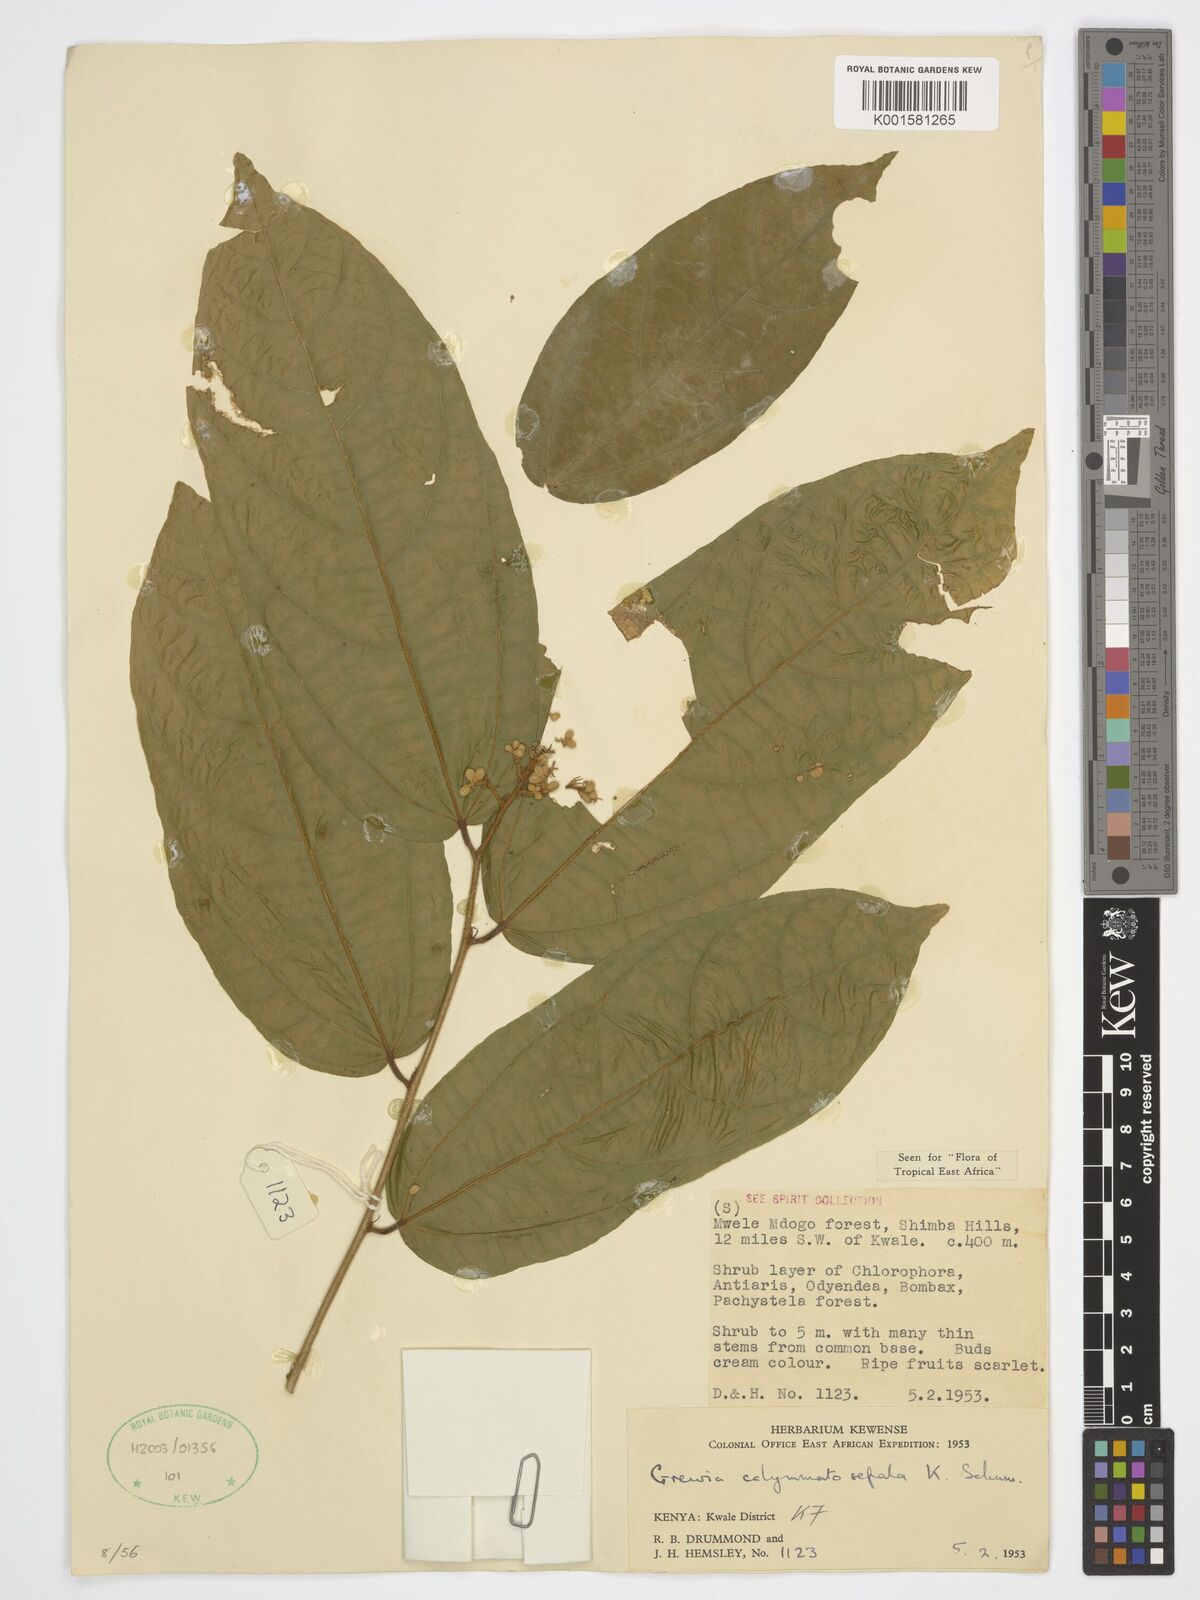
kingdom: Plantae
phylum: Tracheophyta
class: Magnoliopsida
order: Malvales
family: Malvaceae
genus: Microcos
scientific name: Microcos calymmatosepala
